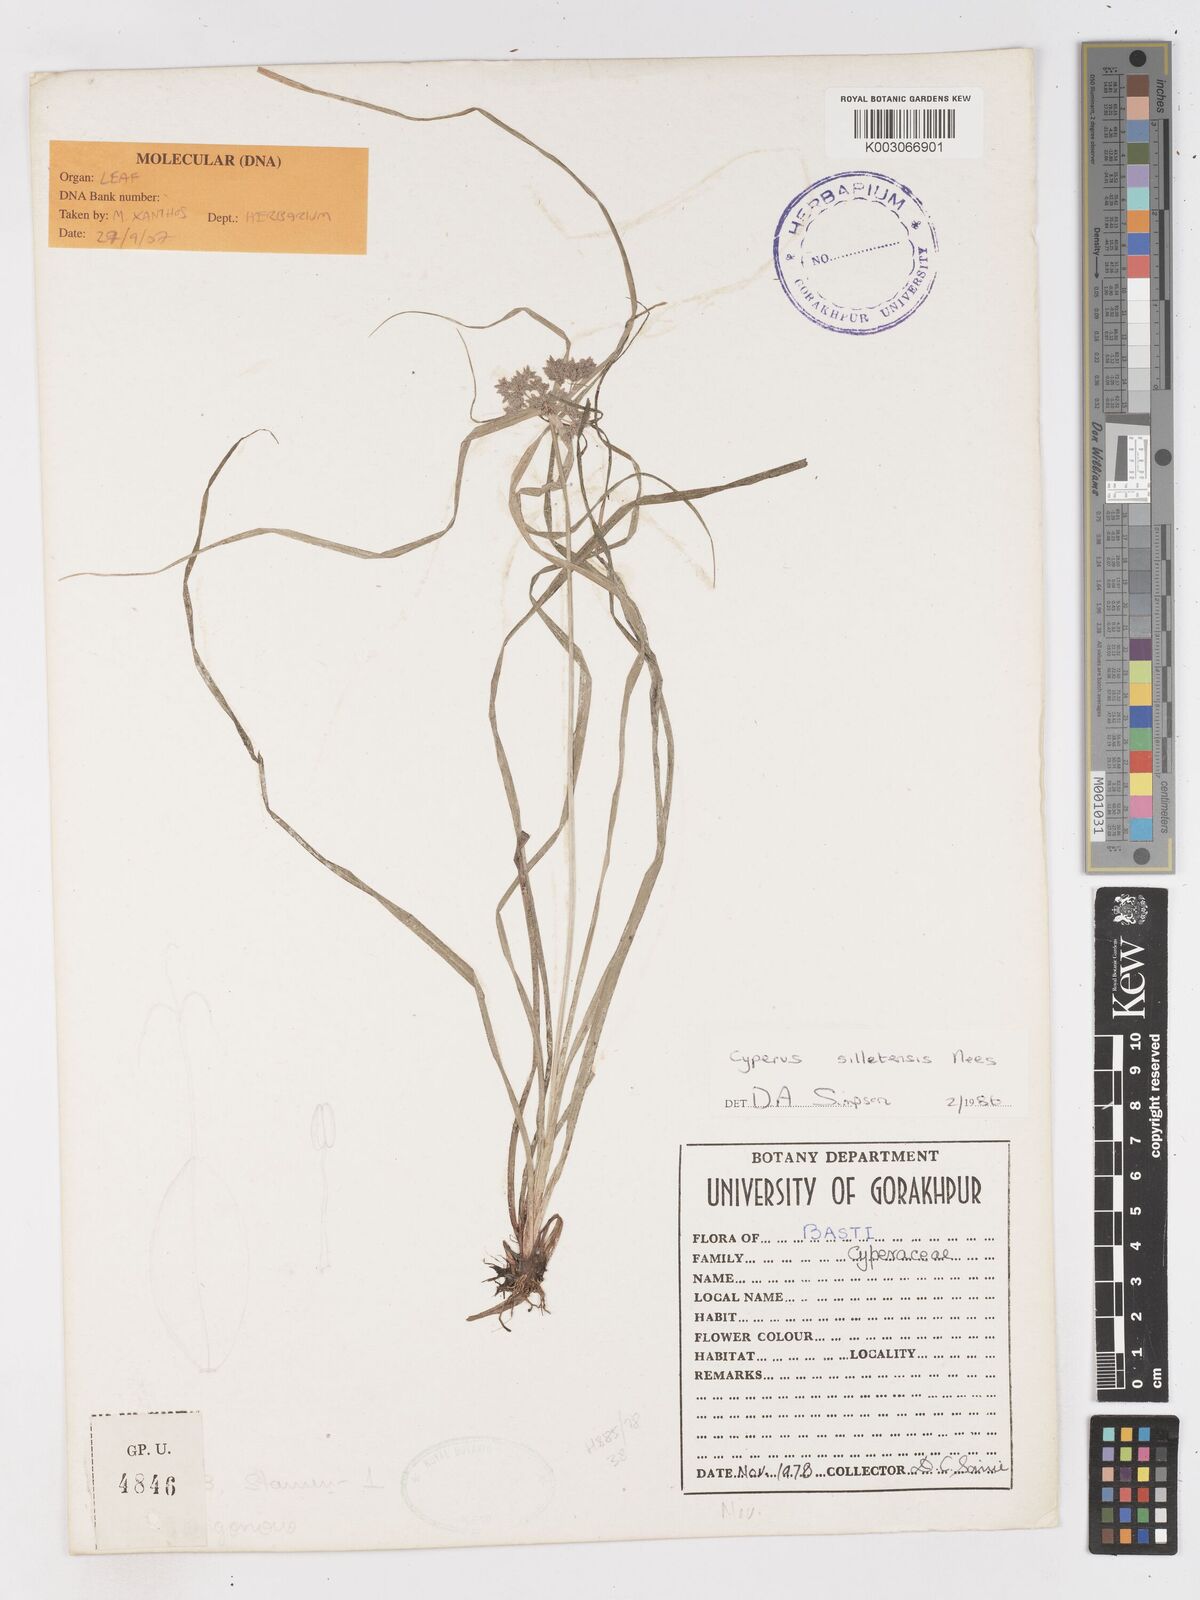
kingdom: Plantae
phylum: Tracheophyta
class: Liliopsida
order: Poales
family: Cyperaceae
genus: Cyperus
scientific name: Cyperus silletensis
